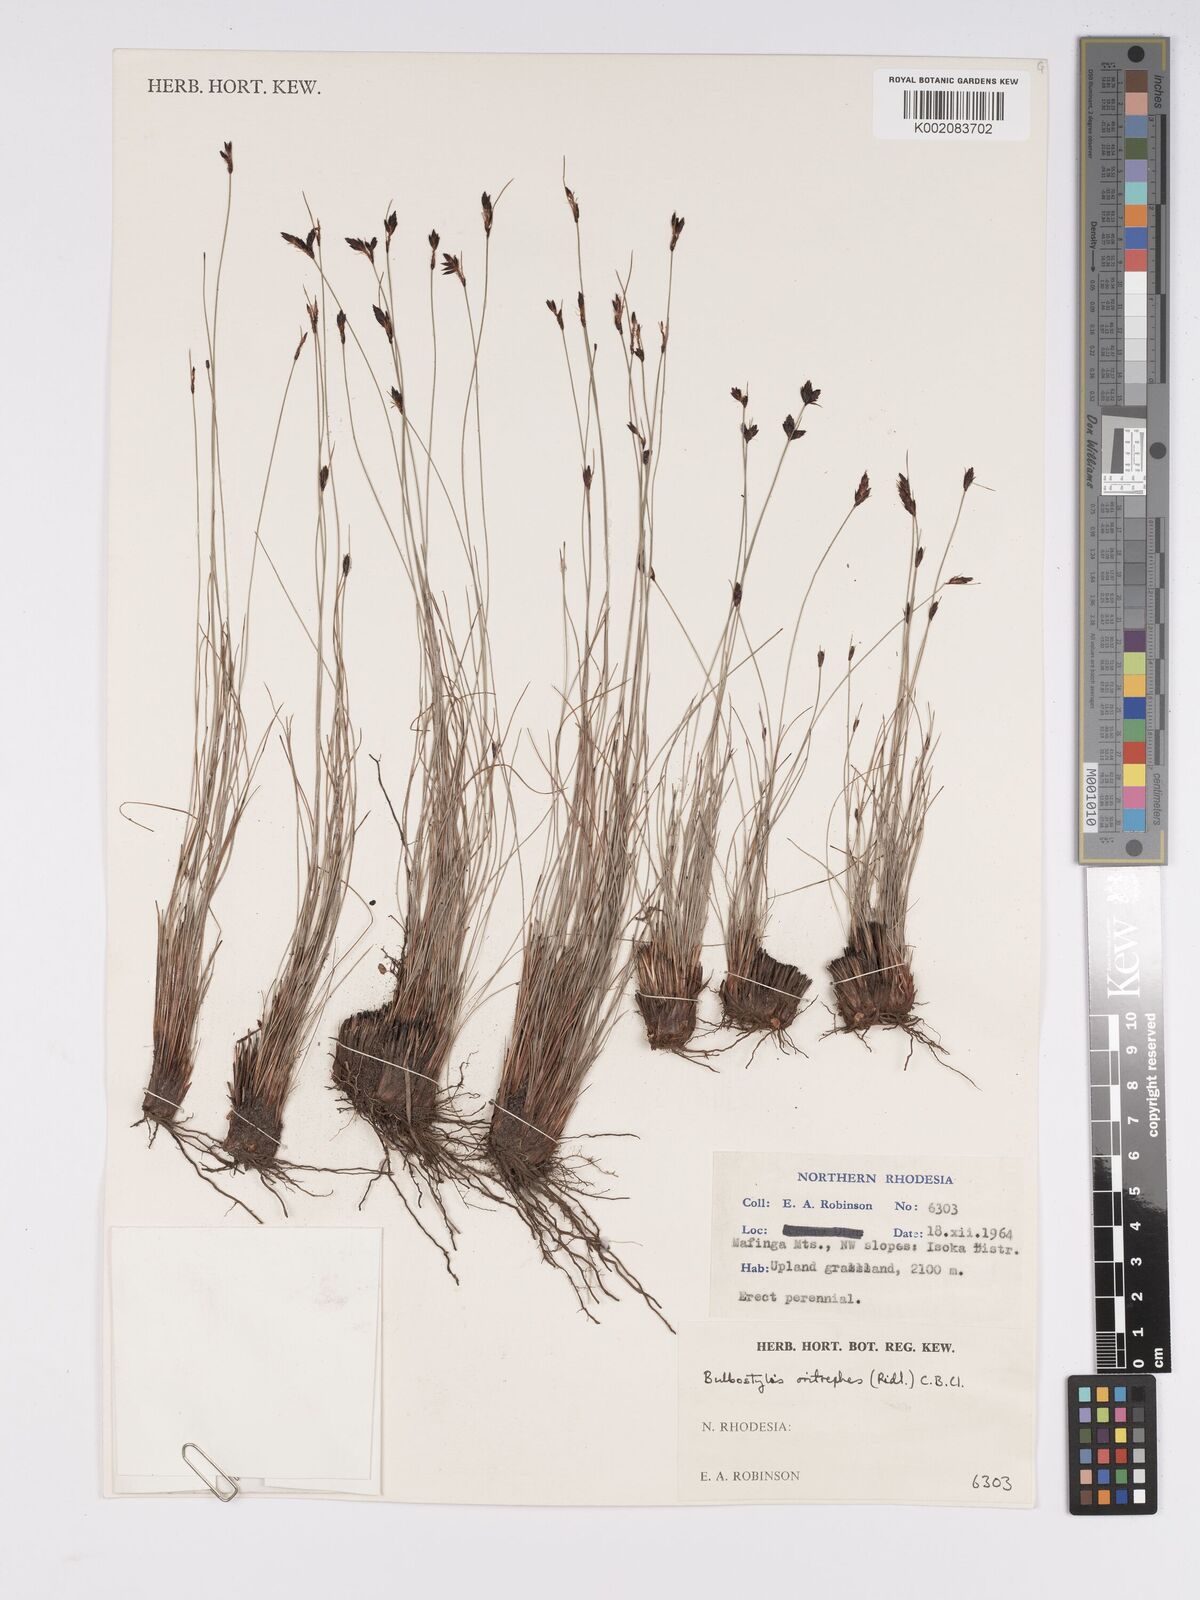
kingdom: Plantae
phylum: Tracheophyta
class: Liliopsida
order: Poales
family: Cyperaceae
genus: Bulbostylis
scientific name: Bulbostylis oritrephes
